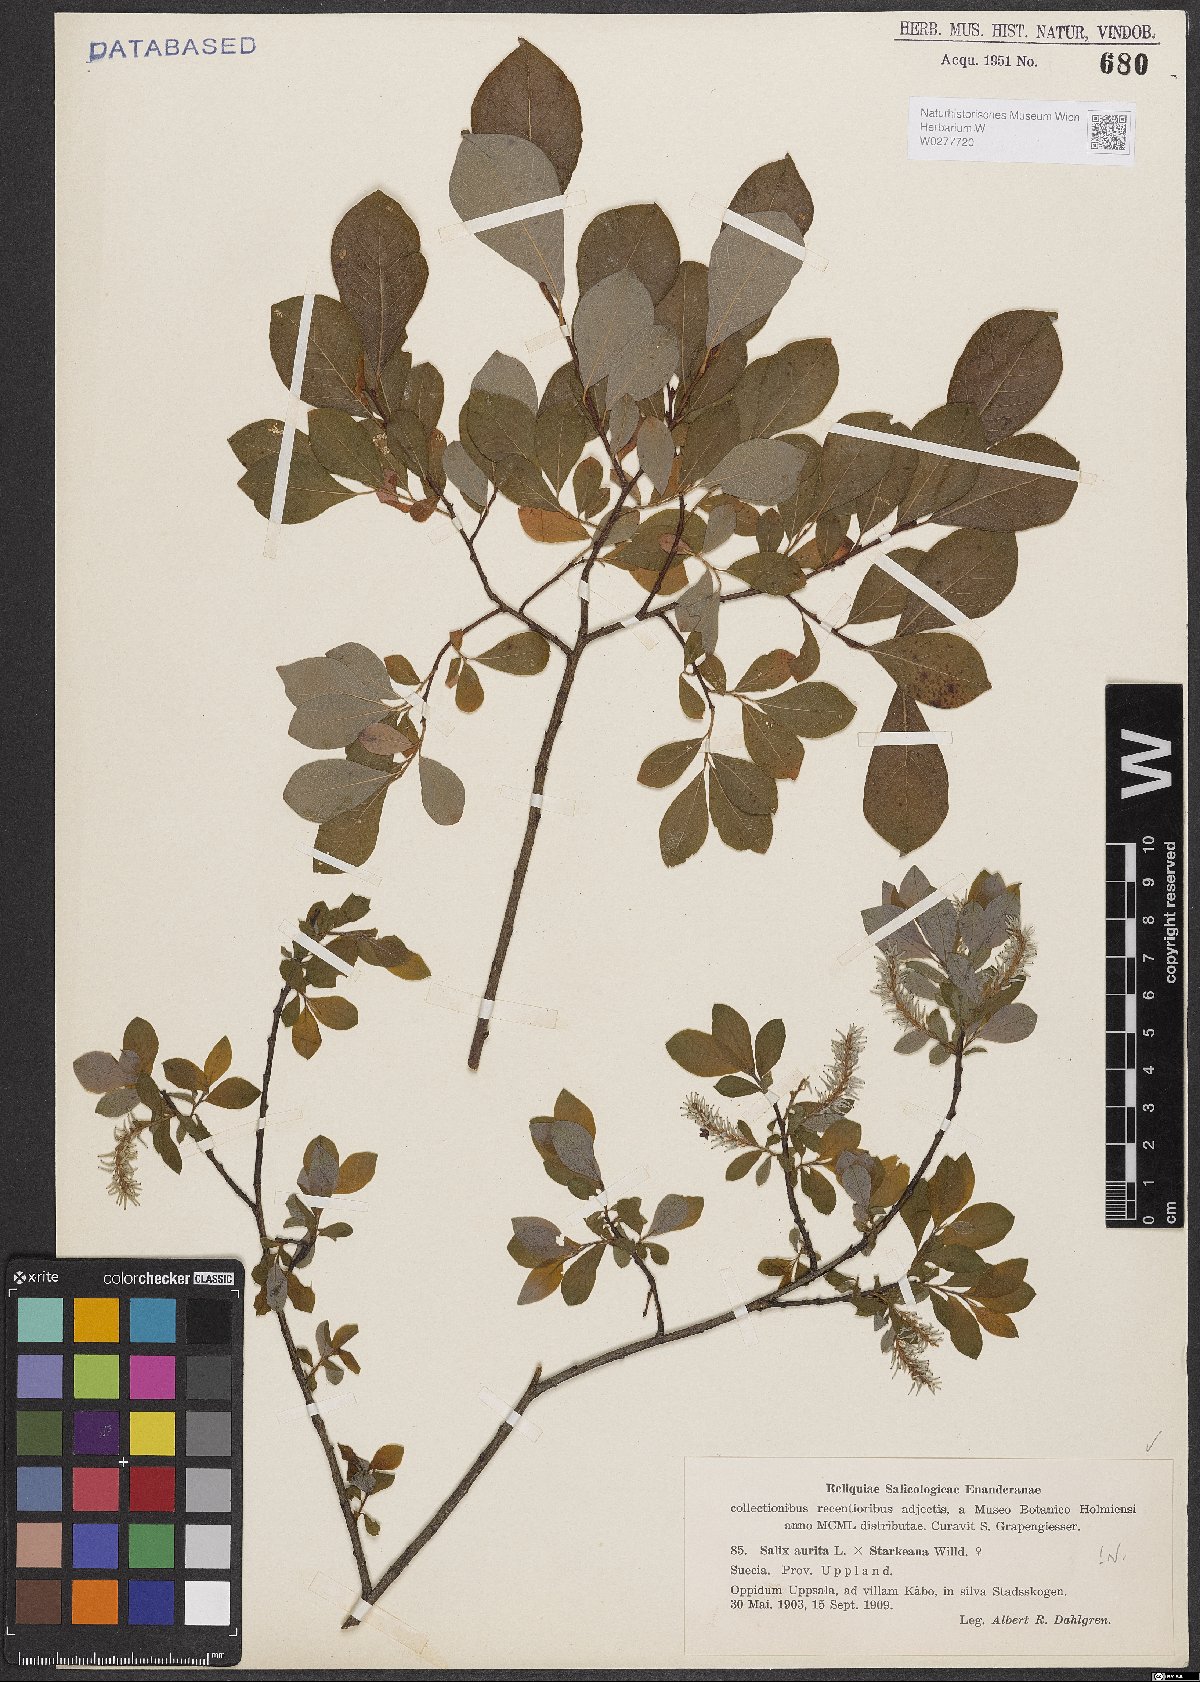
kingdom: Plantae
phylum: Tracheophyta
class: Magnoliopsida
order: Malpighiales
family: Salicaceae
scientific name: Salicaceae
